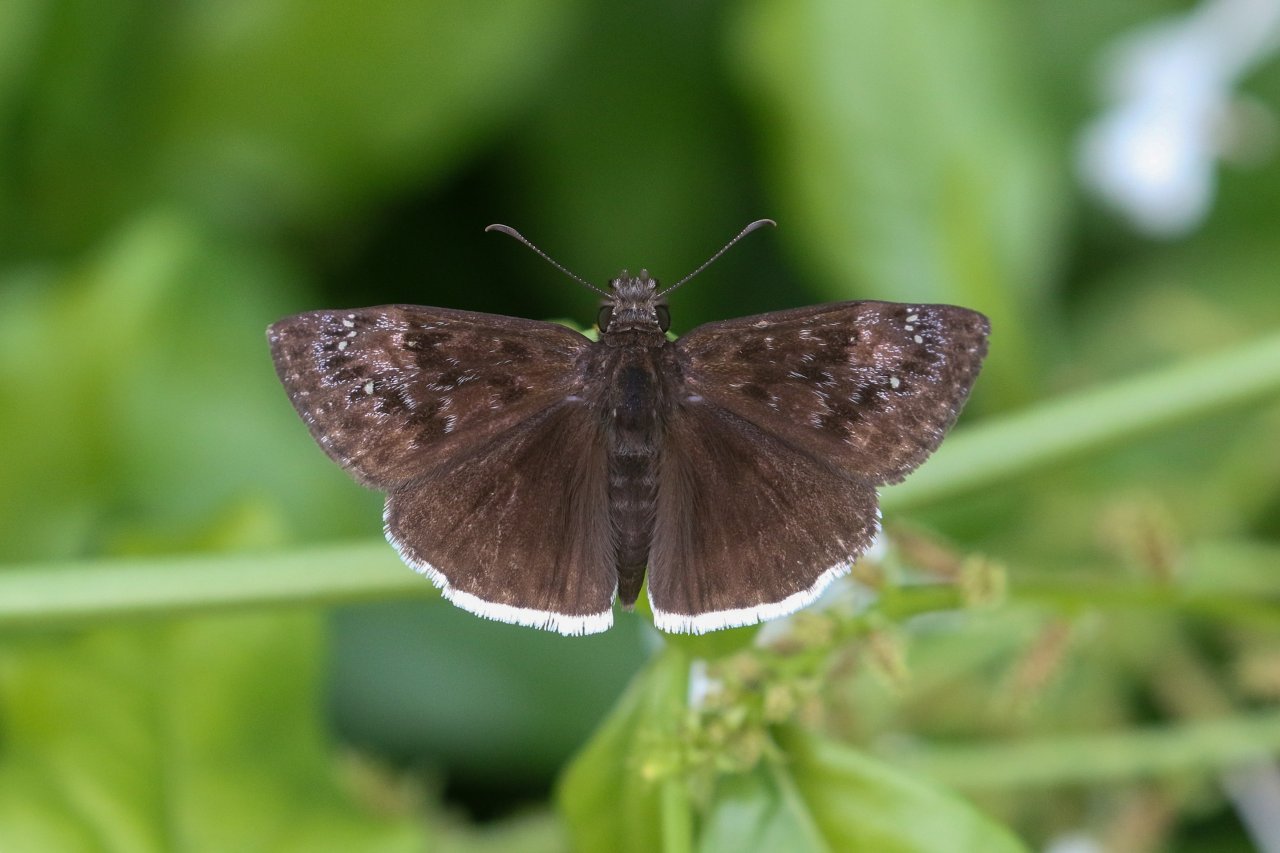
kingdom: Animalia
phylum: Arthropoda
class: Insecta
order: Lepidoptera
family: Hesperiidae
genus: Erynnis
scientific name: Erynnis funeralis
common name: Funereal Duskywing
